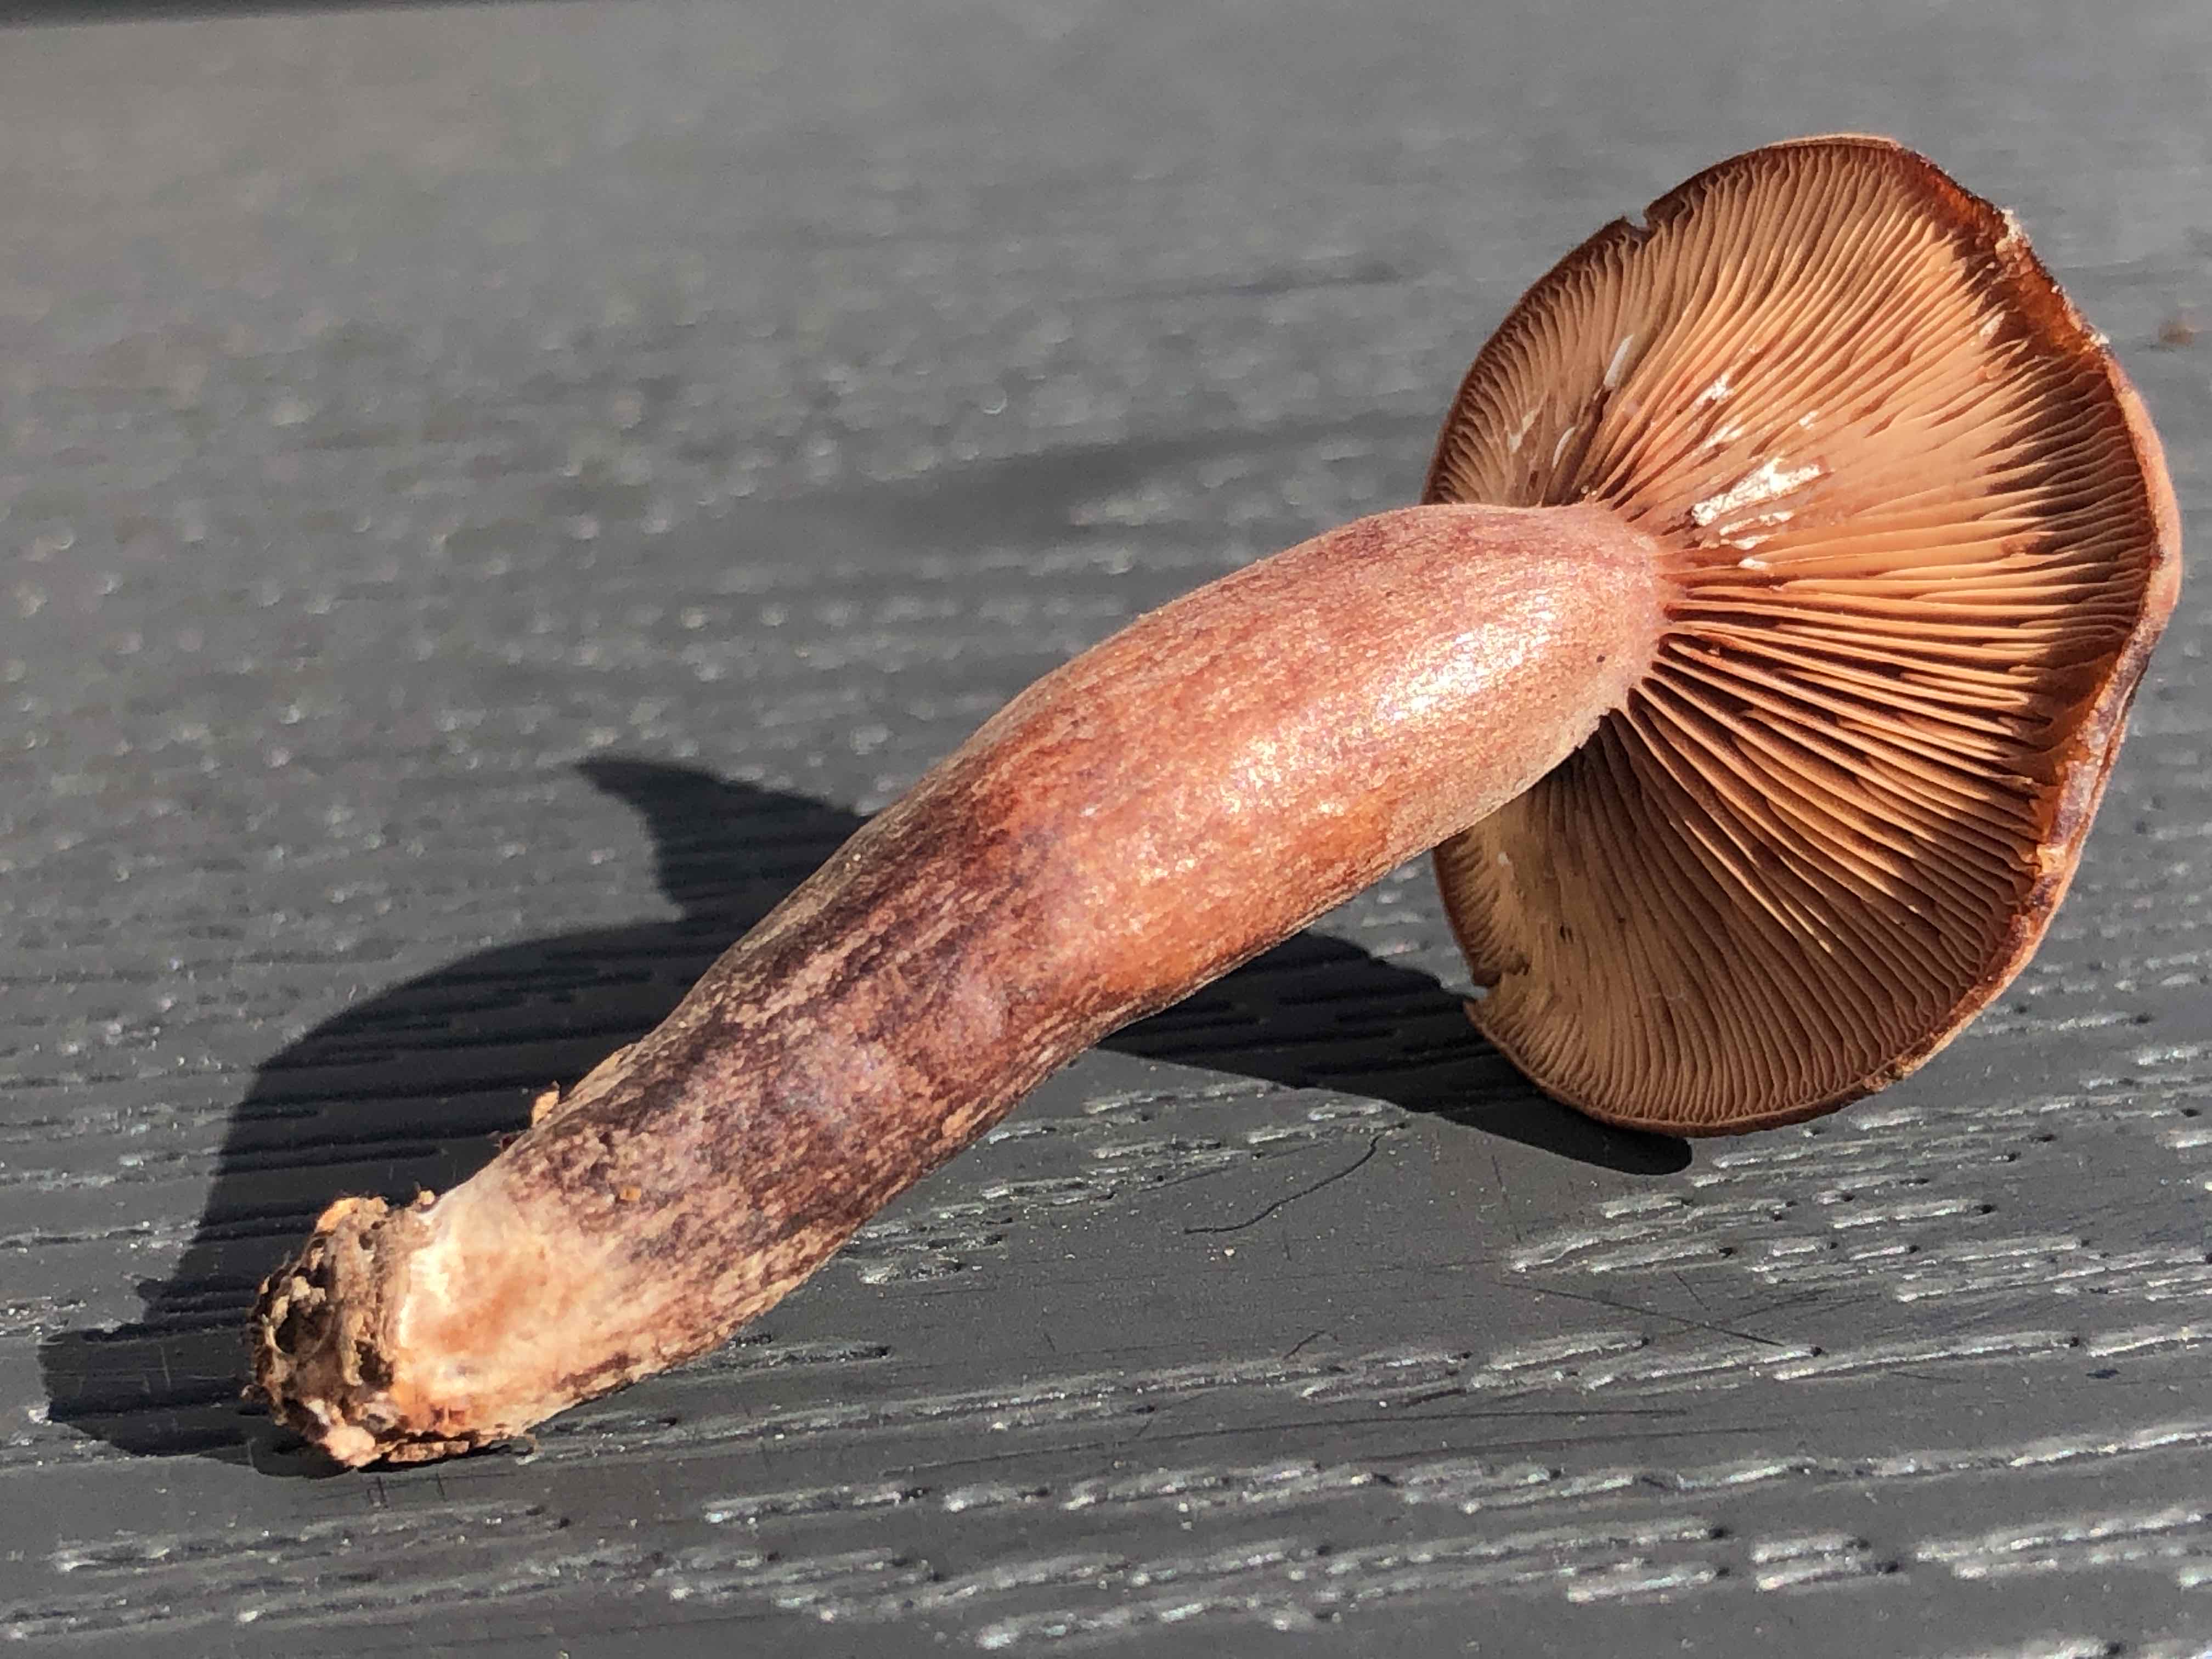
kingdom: Fungi
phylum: Basidiomycota
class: Agaricomycetes
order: Russulales
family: Russulaceae
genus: Lactarius
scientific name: Lactarius camphoratus
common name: kamfer-mælkehat
